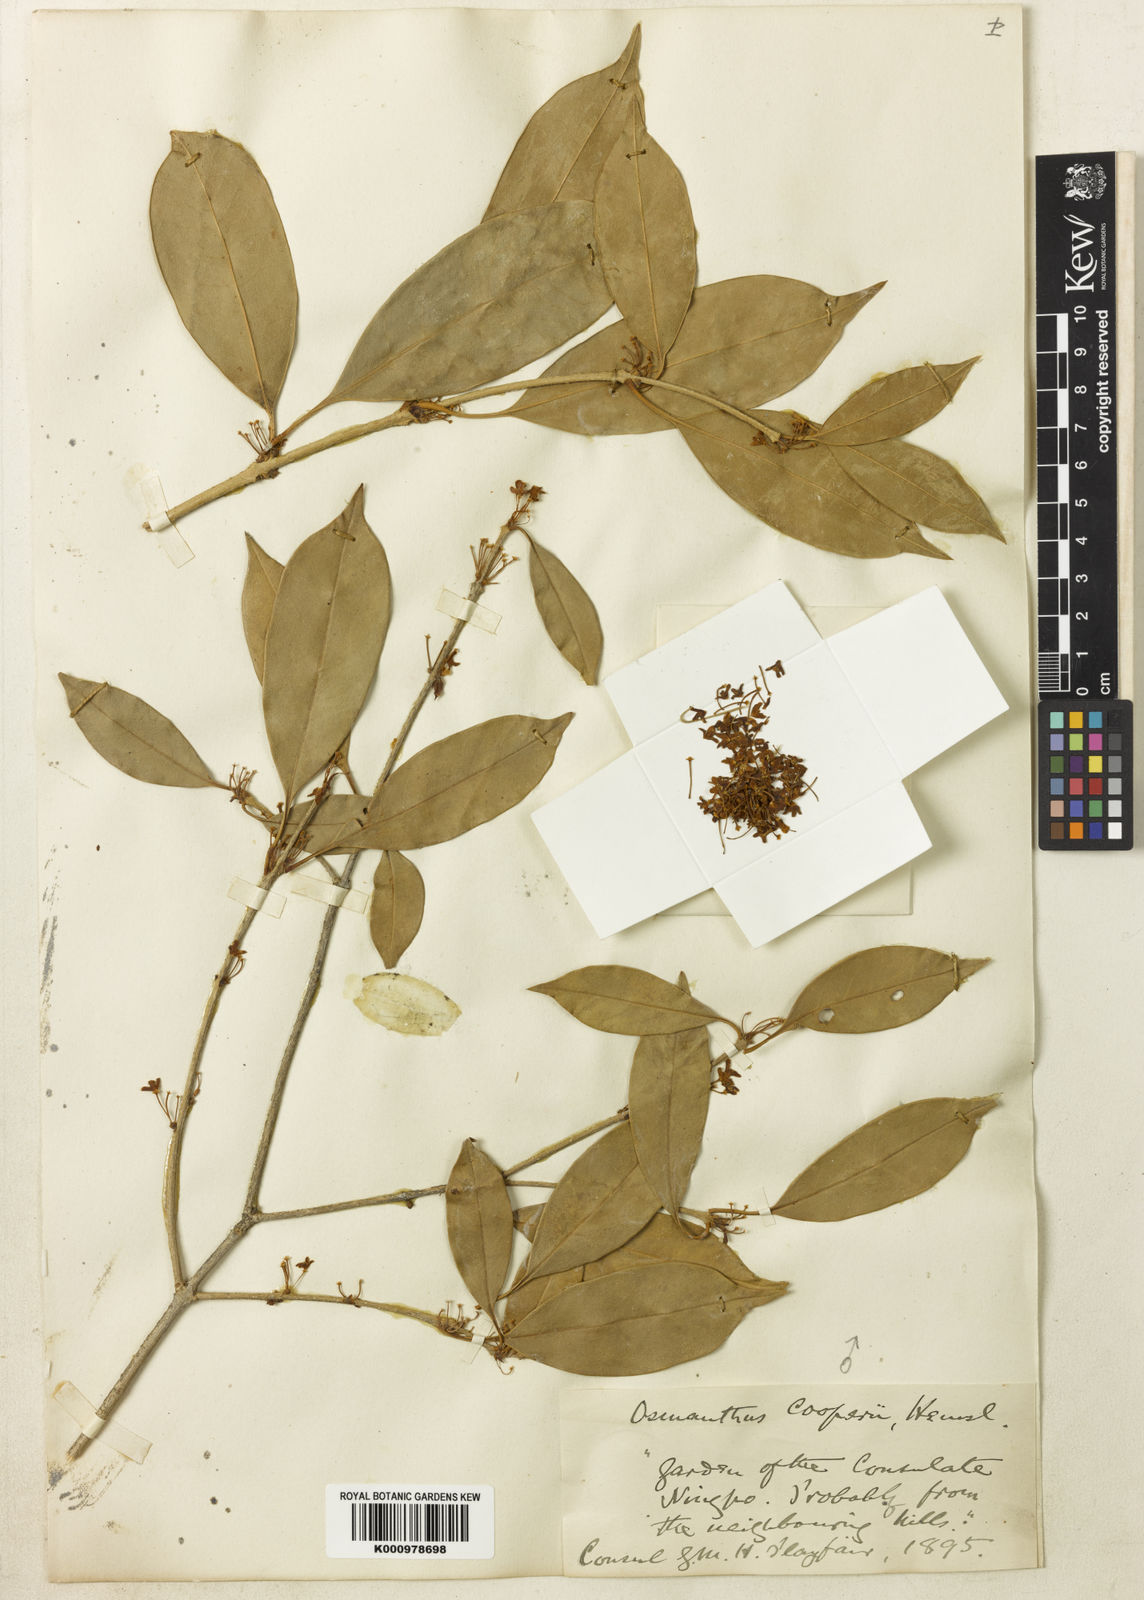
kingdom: Plantae
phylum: Tracheophyta
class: Magnoliopsida
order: Lamiales
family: Oleaceae
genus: Osmanthus
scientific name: Osmanthus cooperi
